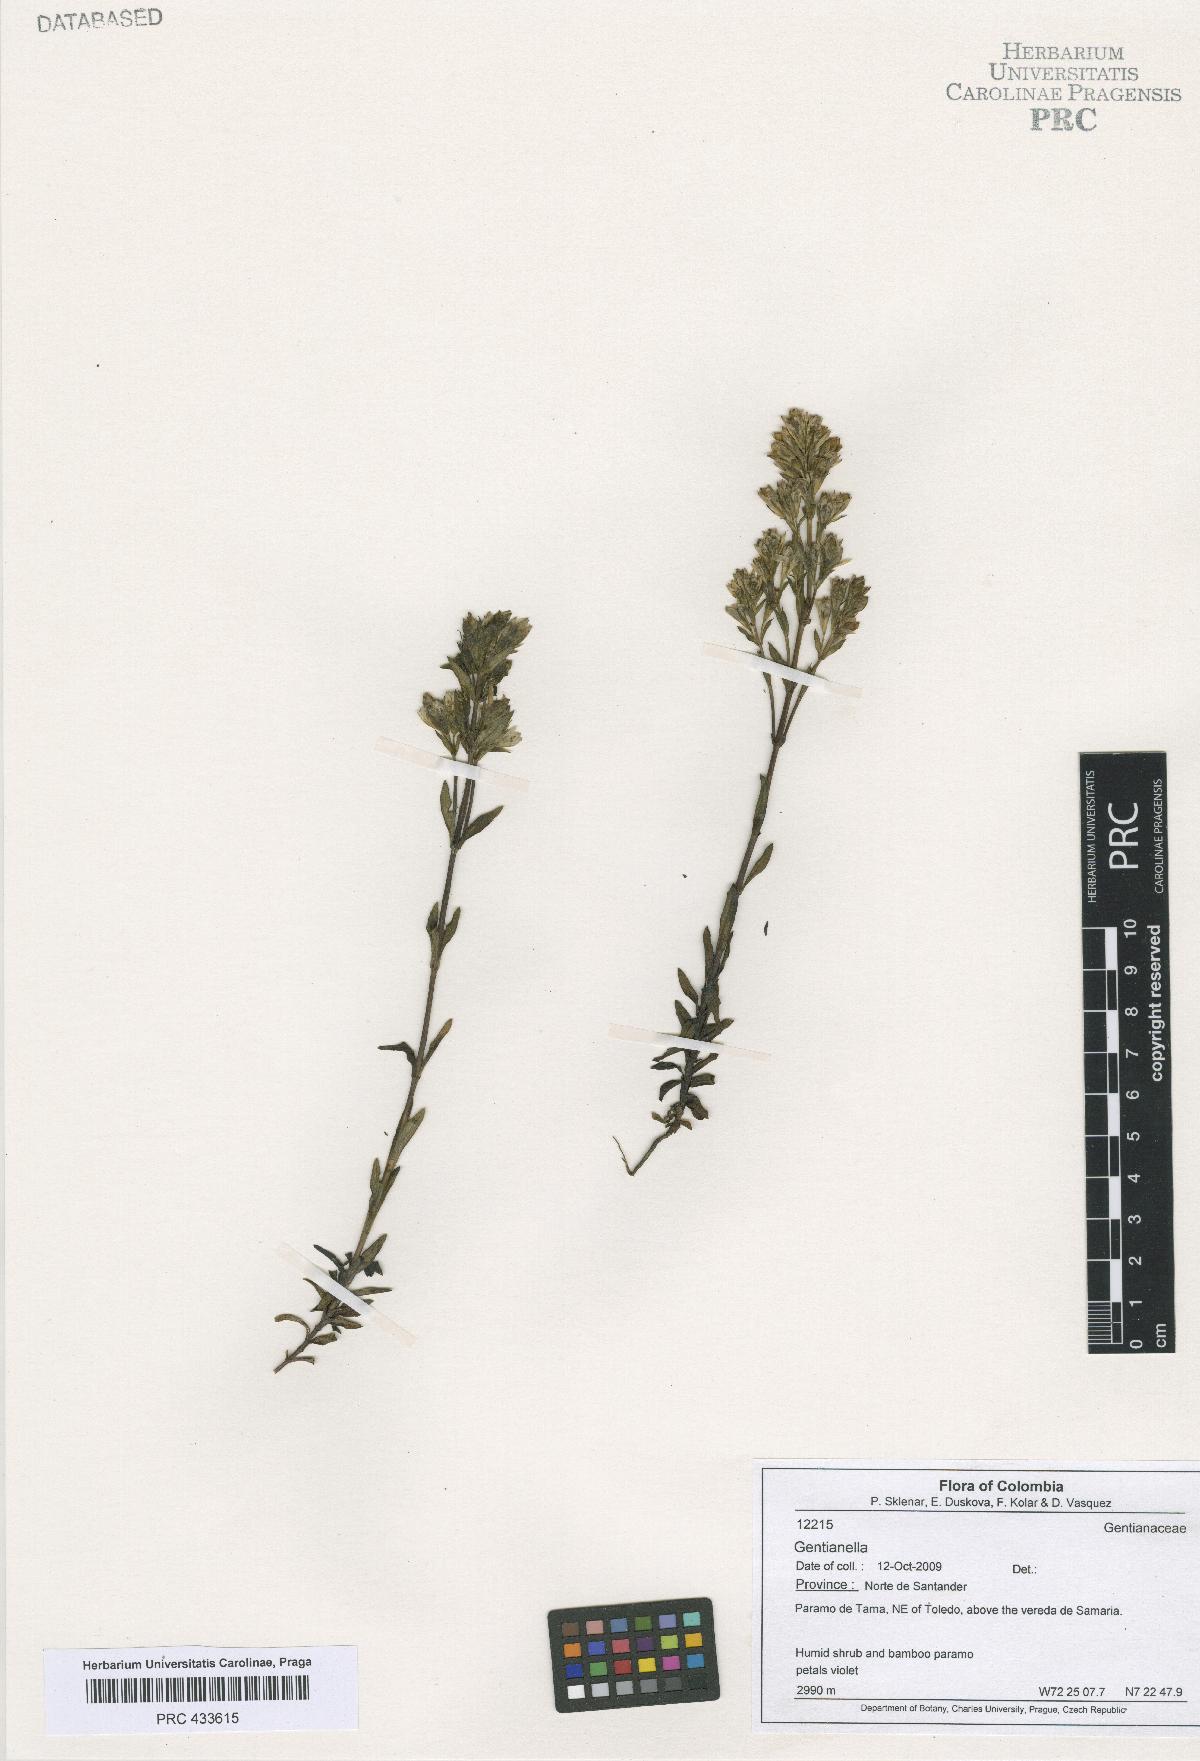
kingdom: Plantae
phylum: Tracheophyta
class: Magnoliopsida
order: Gentianales
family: Gentianaceae
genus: Gentianella
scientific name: Gentianella
